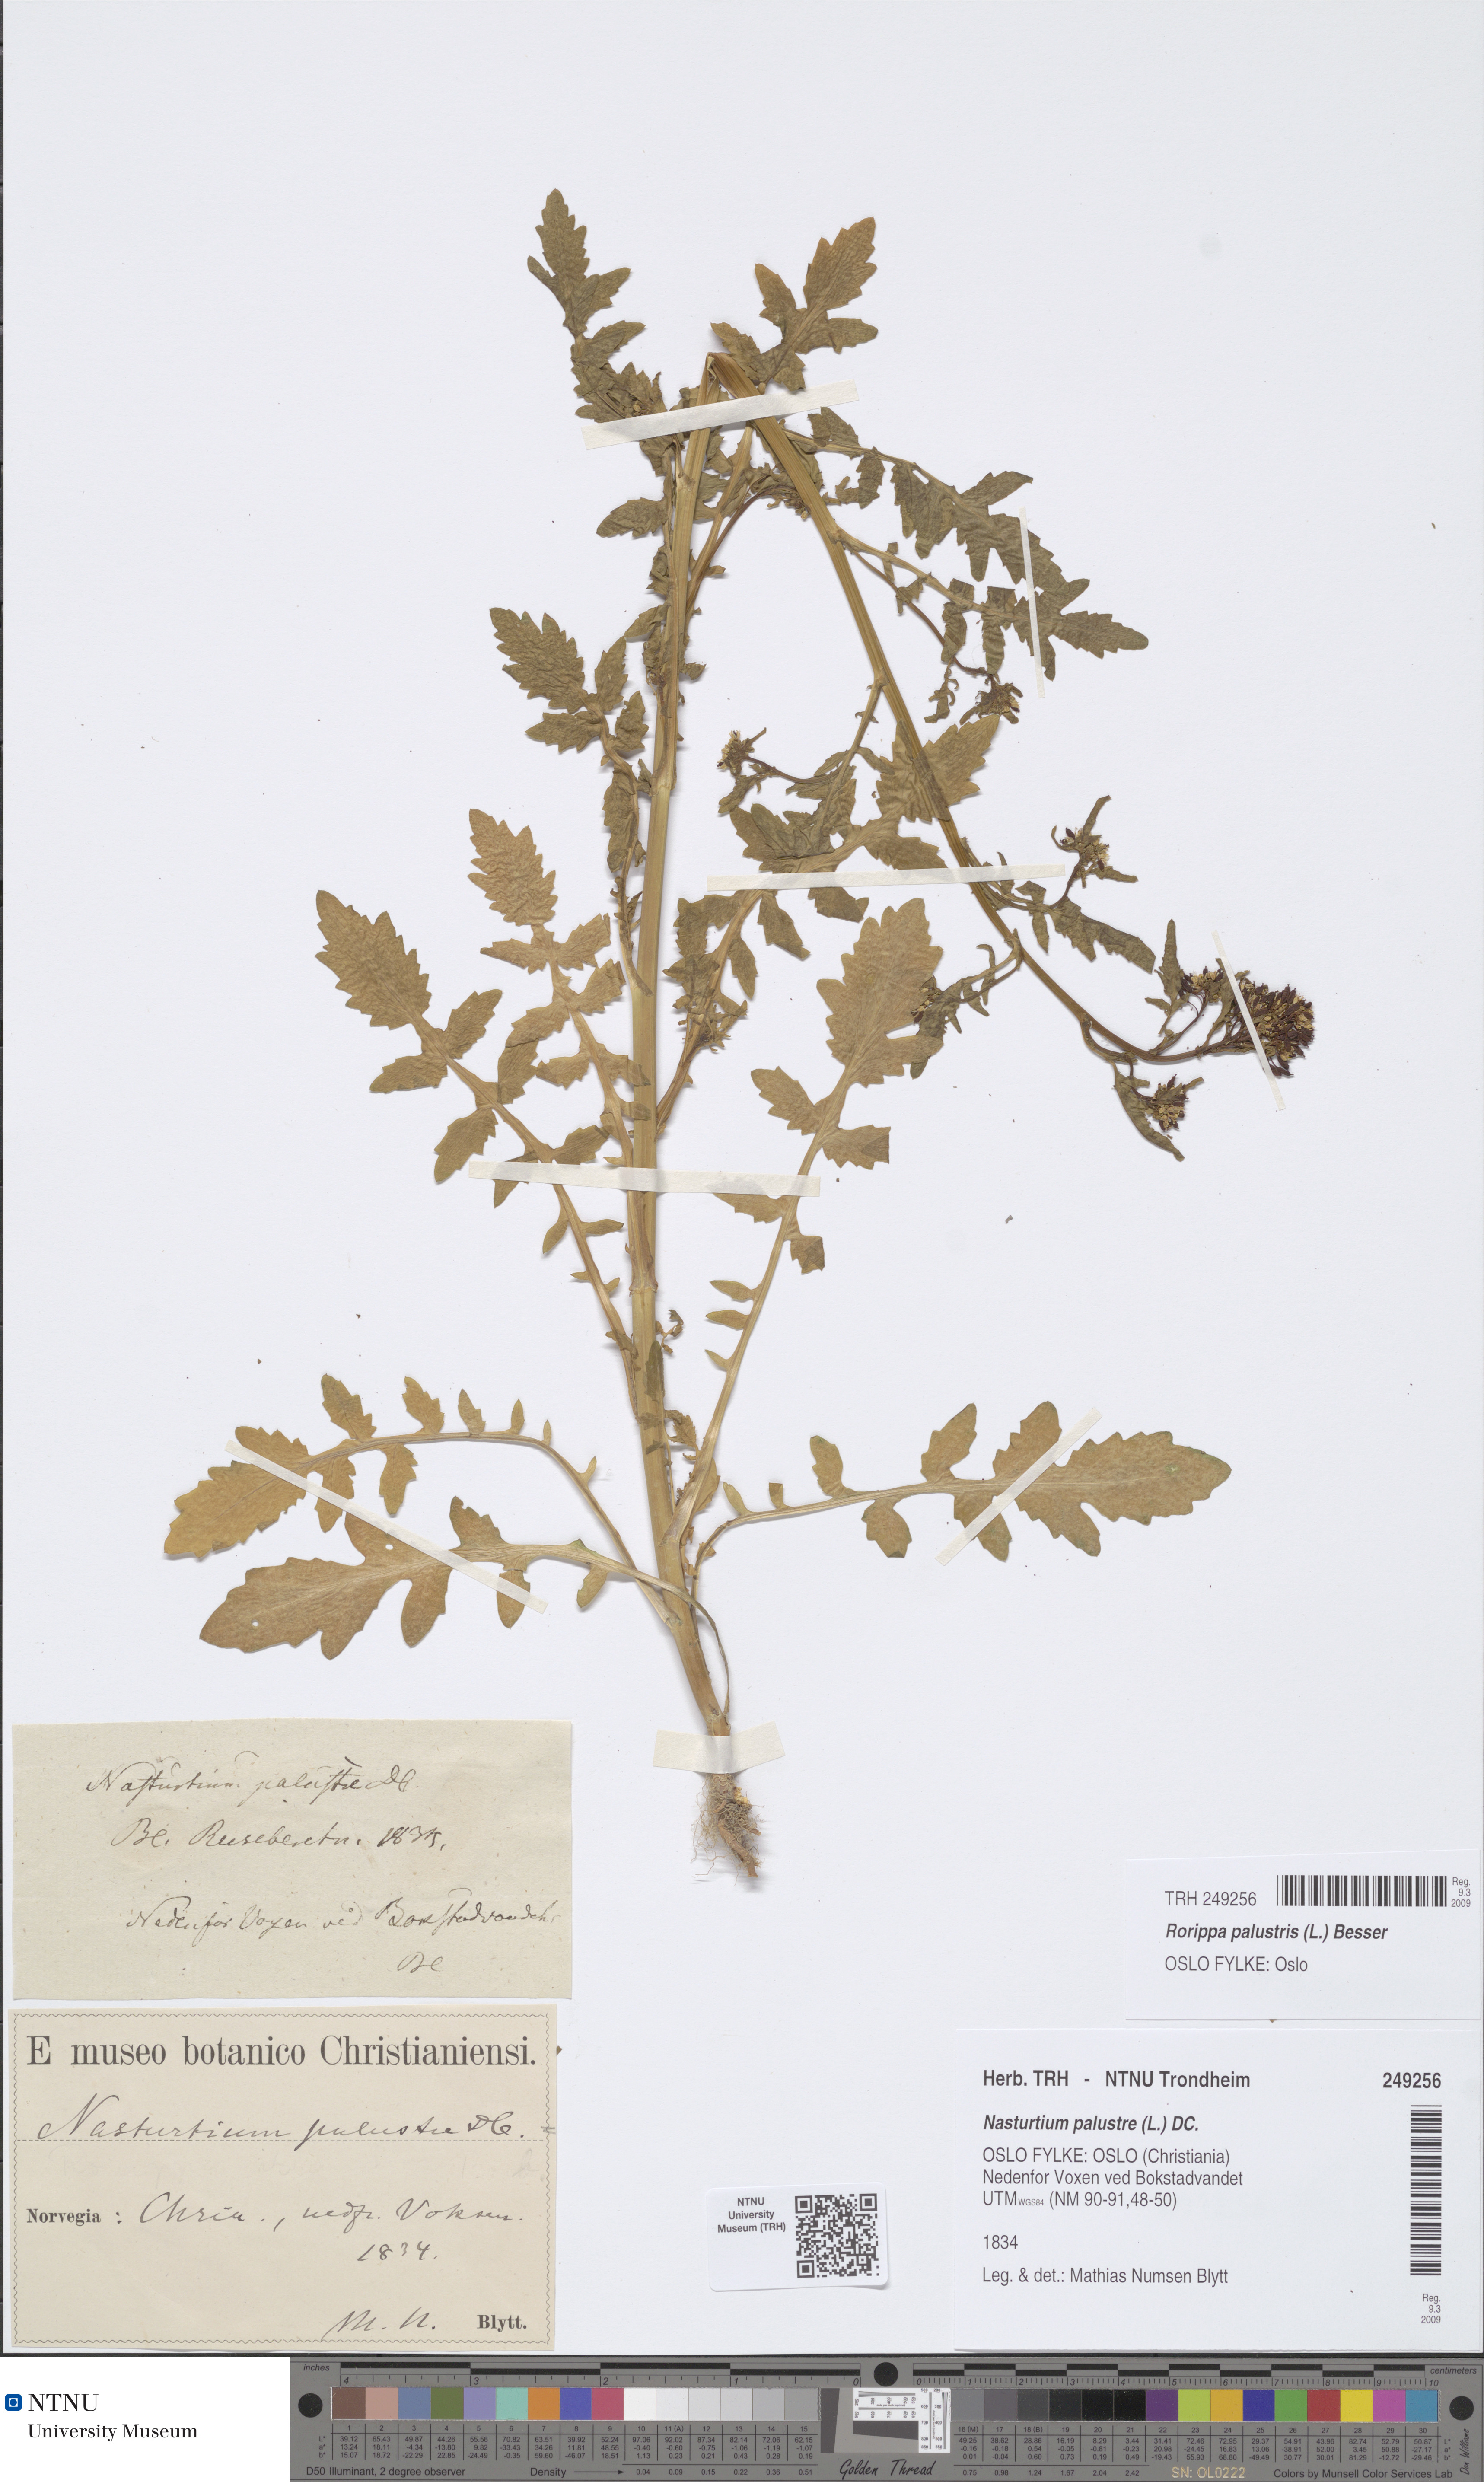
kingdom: Plantae
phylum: Tracheophyta
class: Magnoliopsida
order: Brassicales
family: Brassicaceae
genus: Rorippa
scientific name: Rorippa palustris
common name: Marsh yellow-cress
